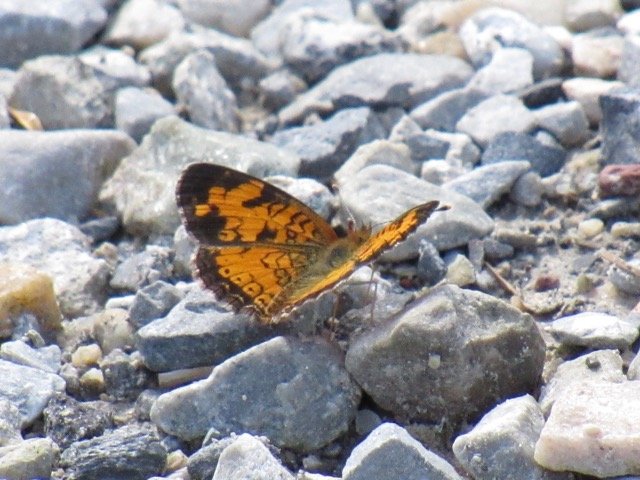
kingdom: Animalia
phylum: Arthropoda
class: Insecta
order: Lepidoptera
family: Nymphalidae
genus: Phyciodes
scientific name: Phyciodes tharos
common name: Pearl Crescent
